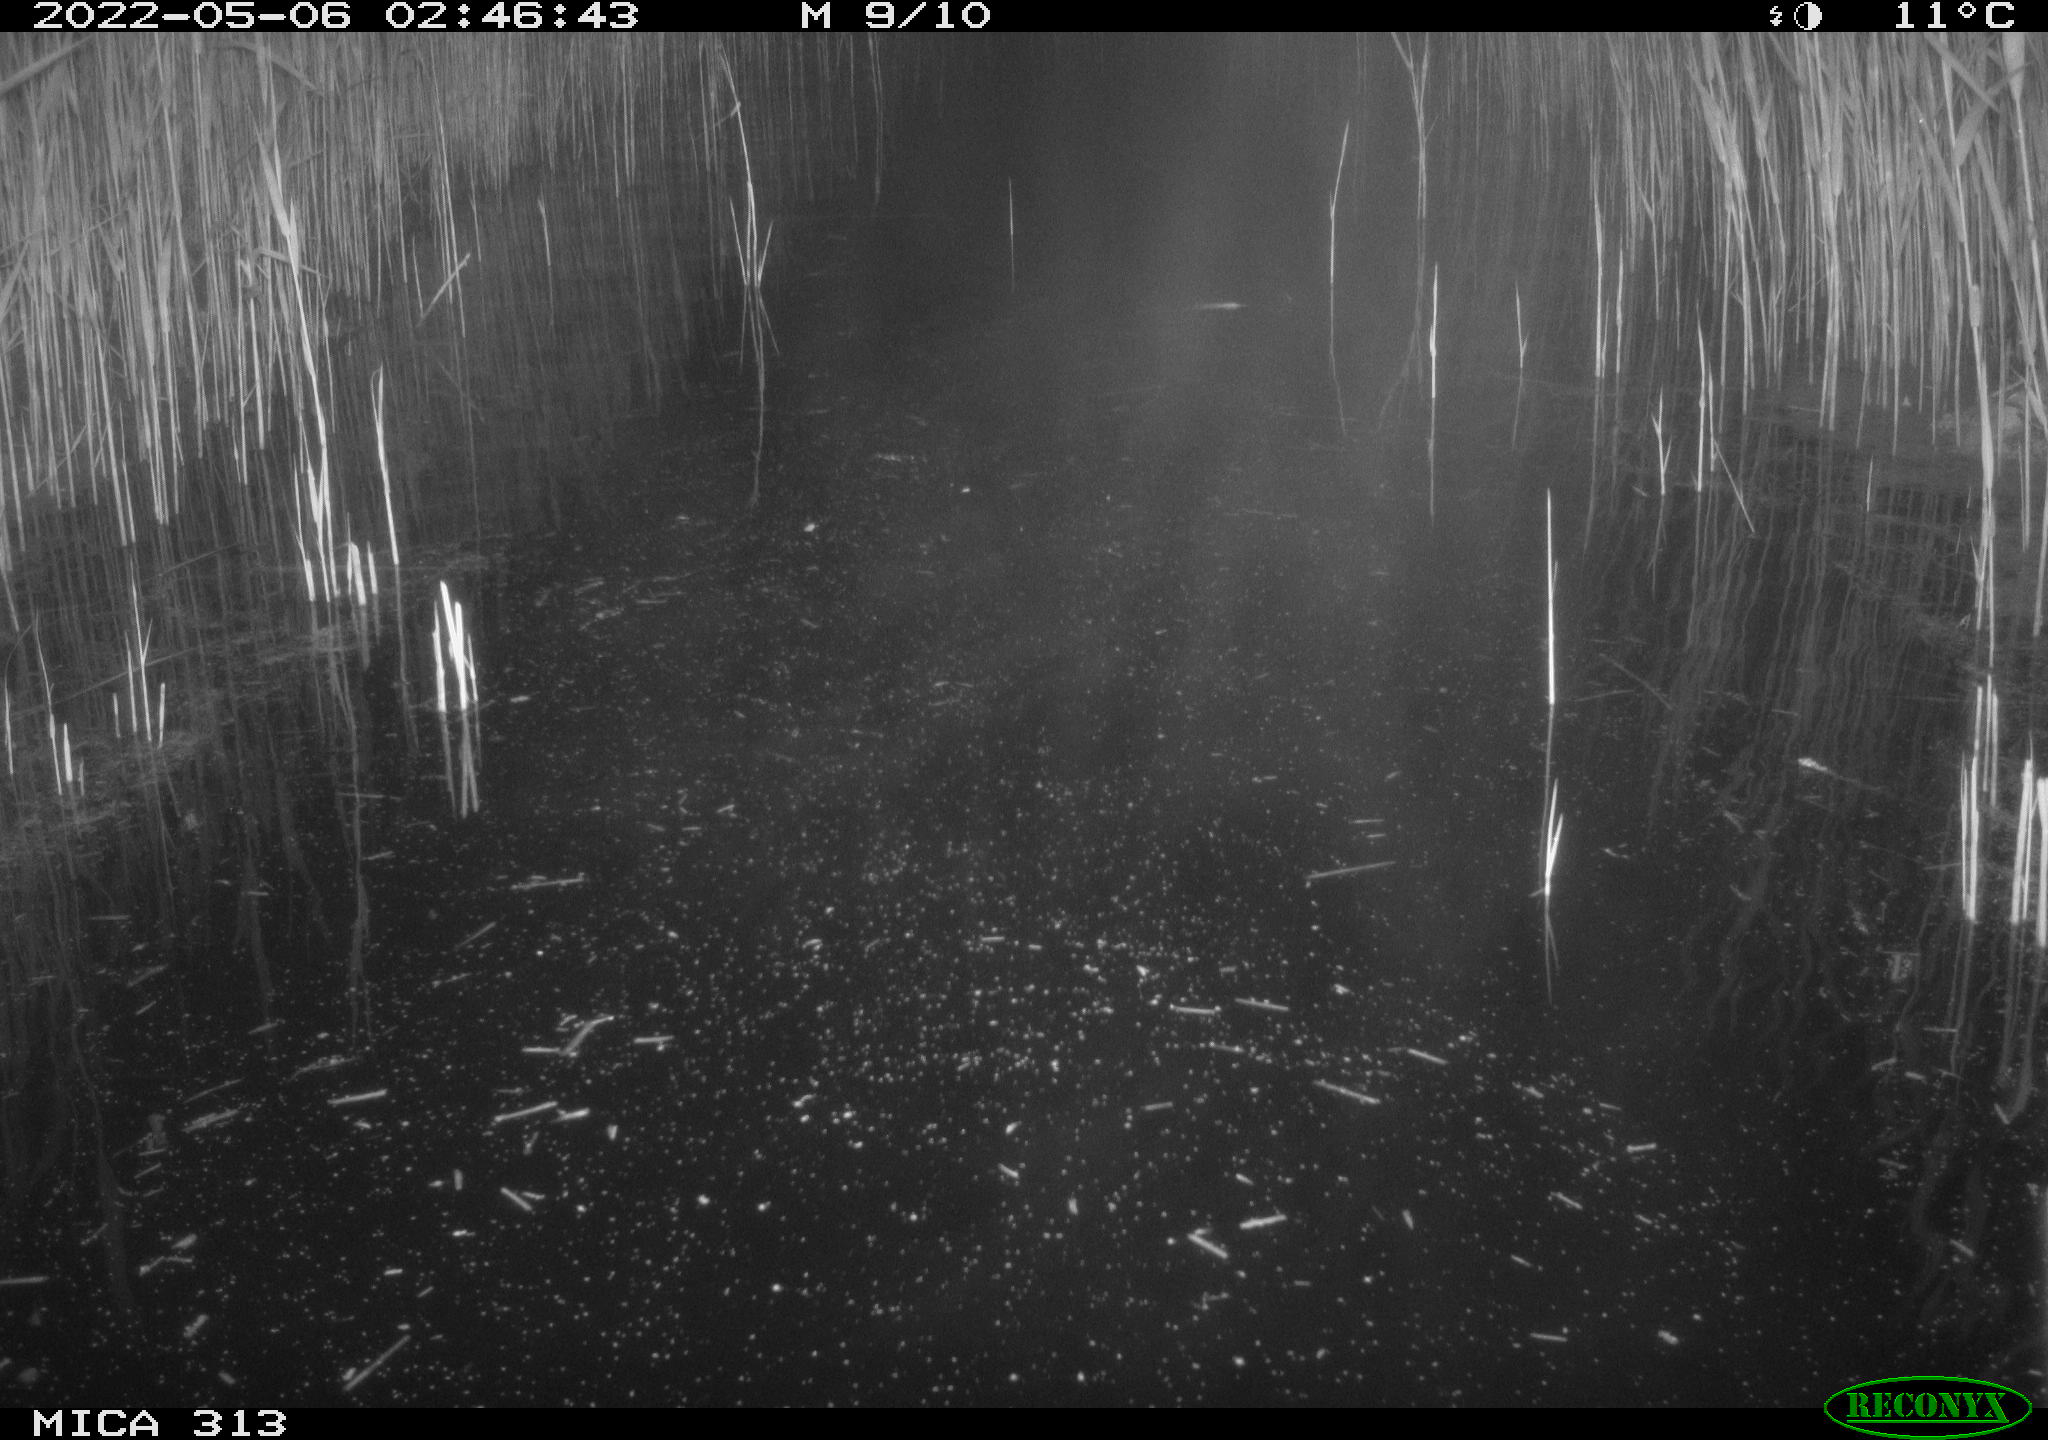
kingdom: Animalia
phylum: Chordata
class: Aves
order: Anseriformes
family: Anatidae
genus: Anas
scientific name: Anas platyrhynchos
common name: Mallard
